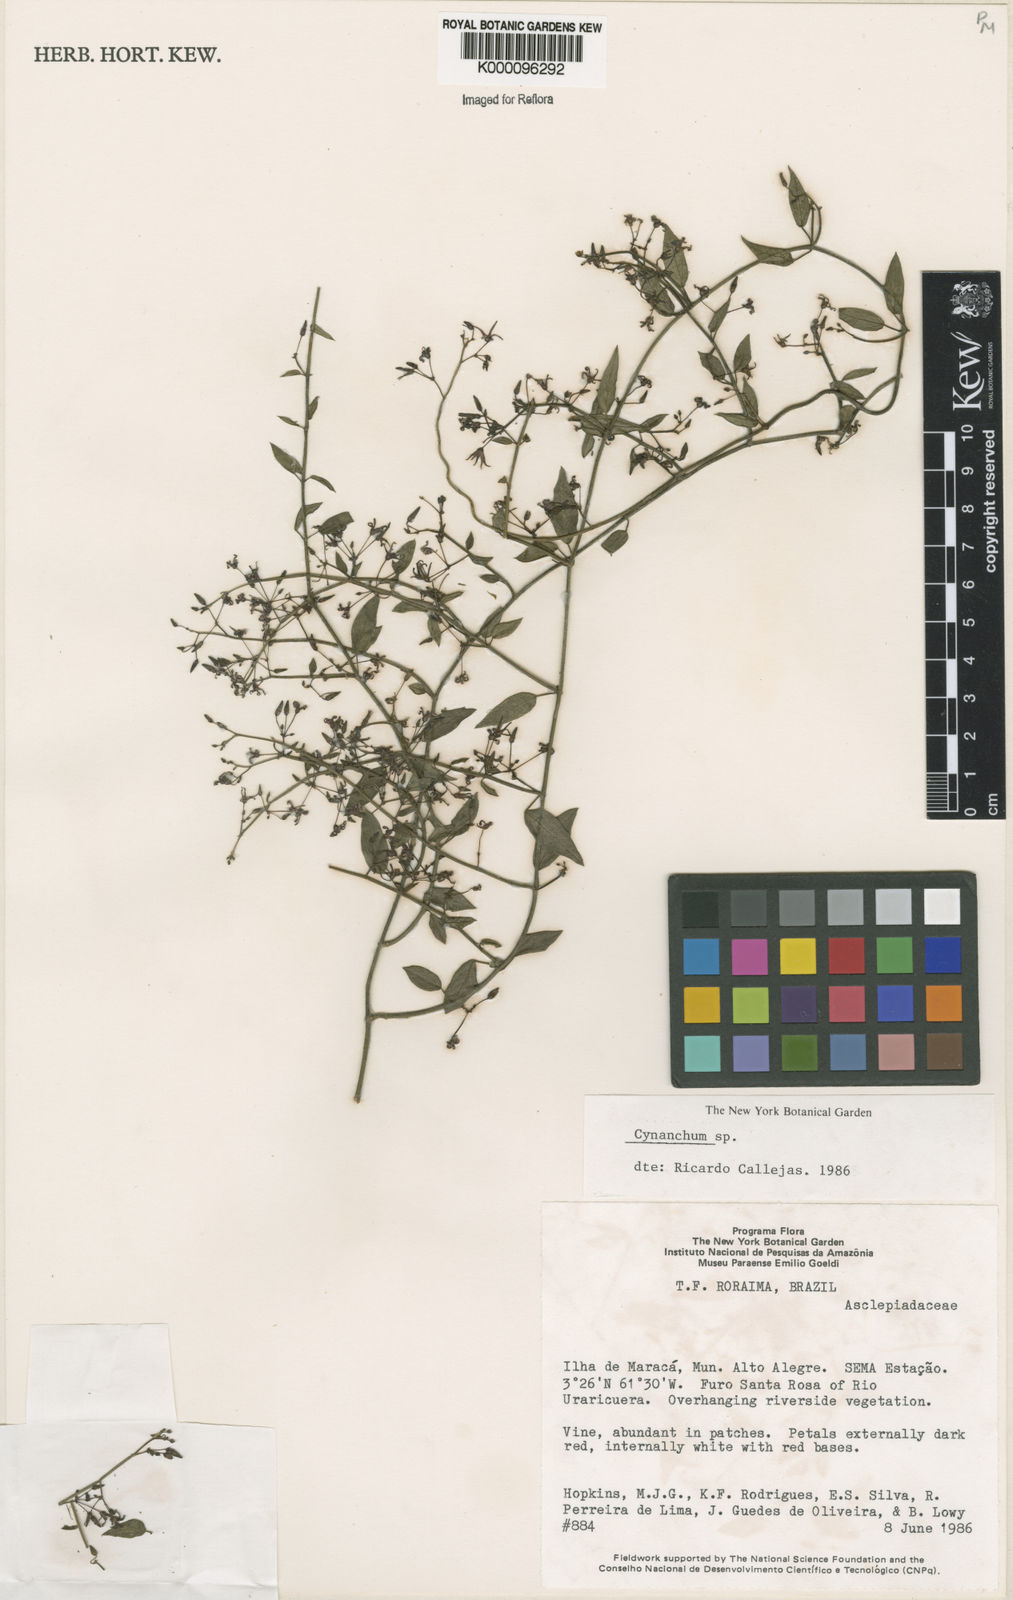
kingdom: Plantae
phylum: Tracheophyta
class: Magnoliopsida
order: Gentianales
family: Apocynaceae
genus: Tassadia
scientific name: Tassadia
